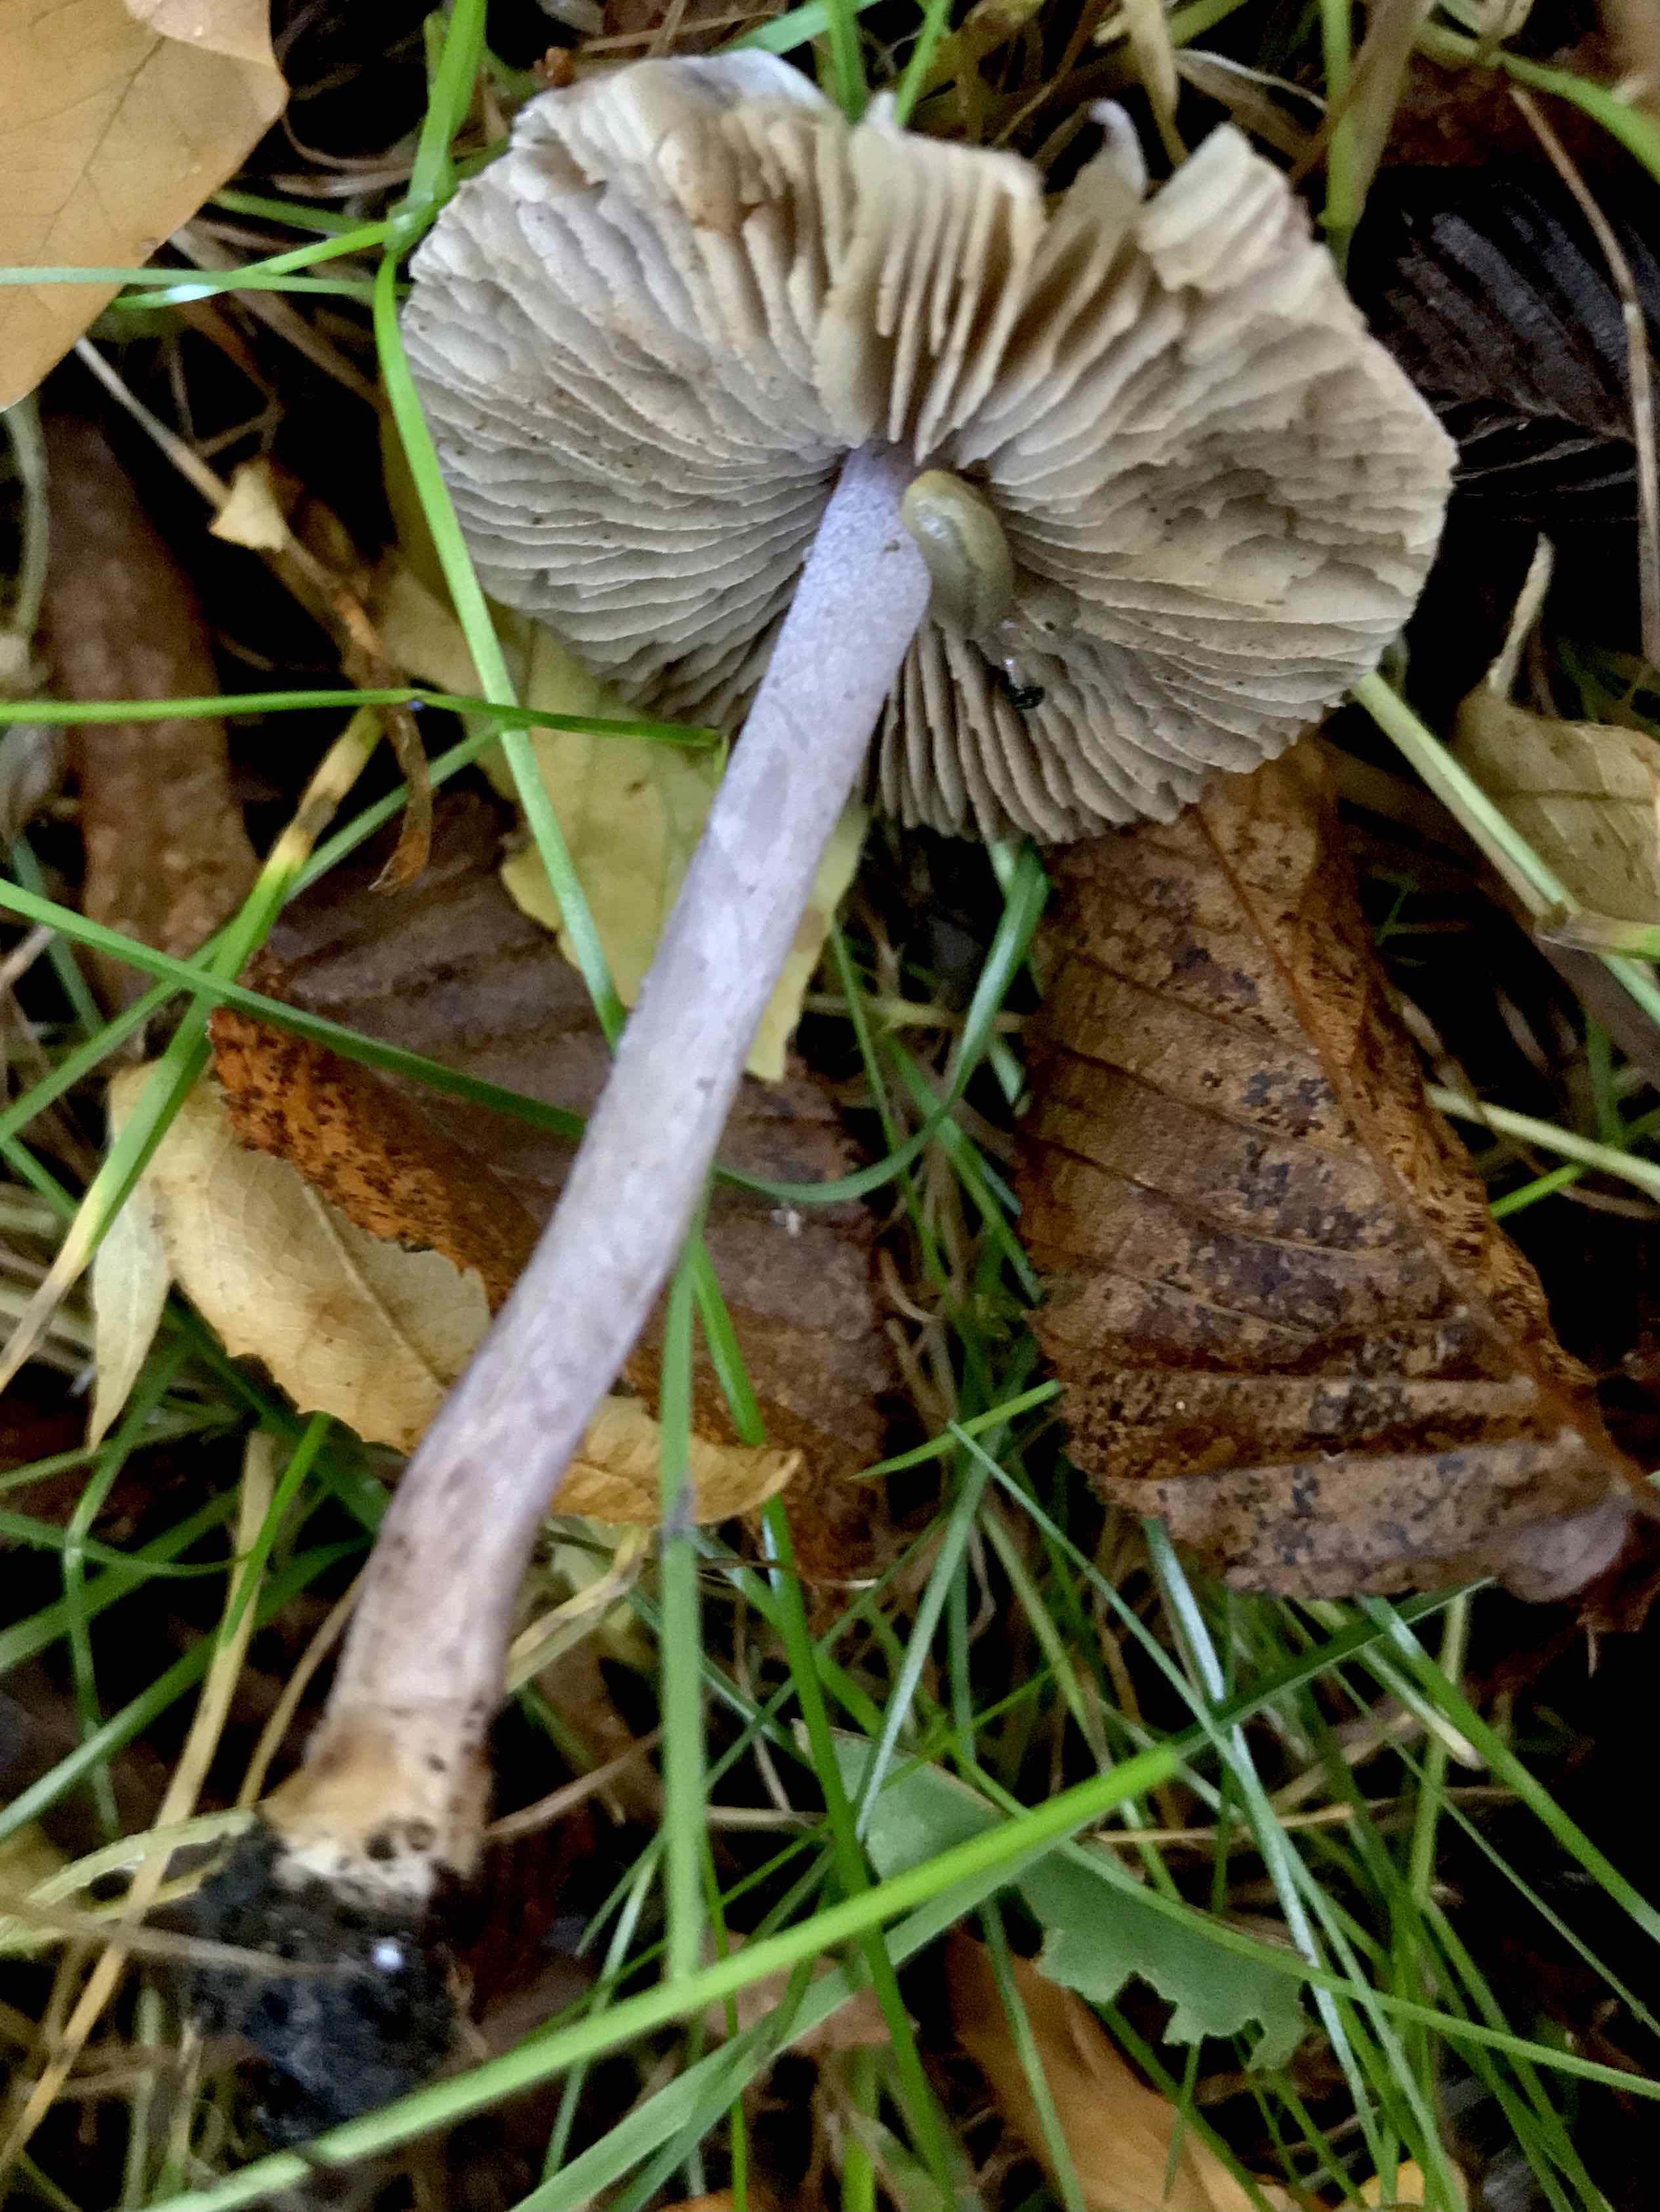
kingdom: Fungi
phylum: Basidiomycota
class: Agaricomycetes
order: Agaricales
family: Inocybaceae
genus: Inocybe
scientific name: Inocybe geophylla
